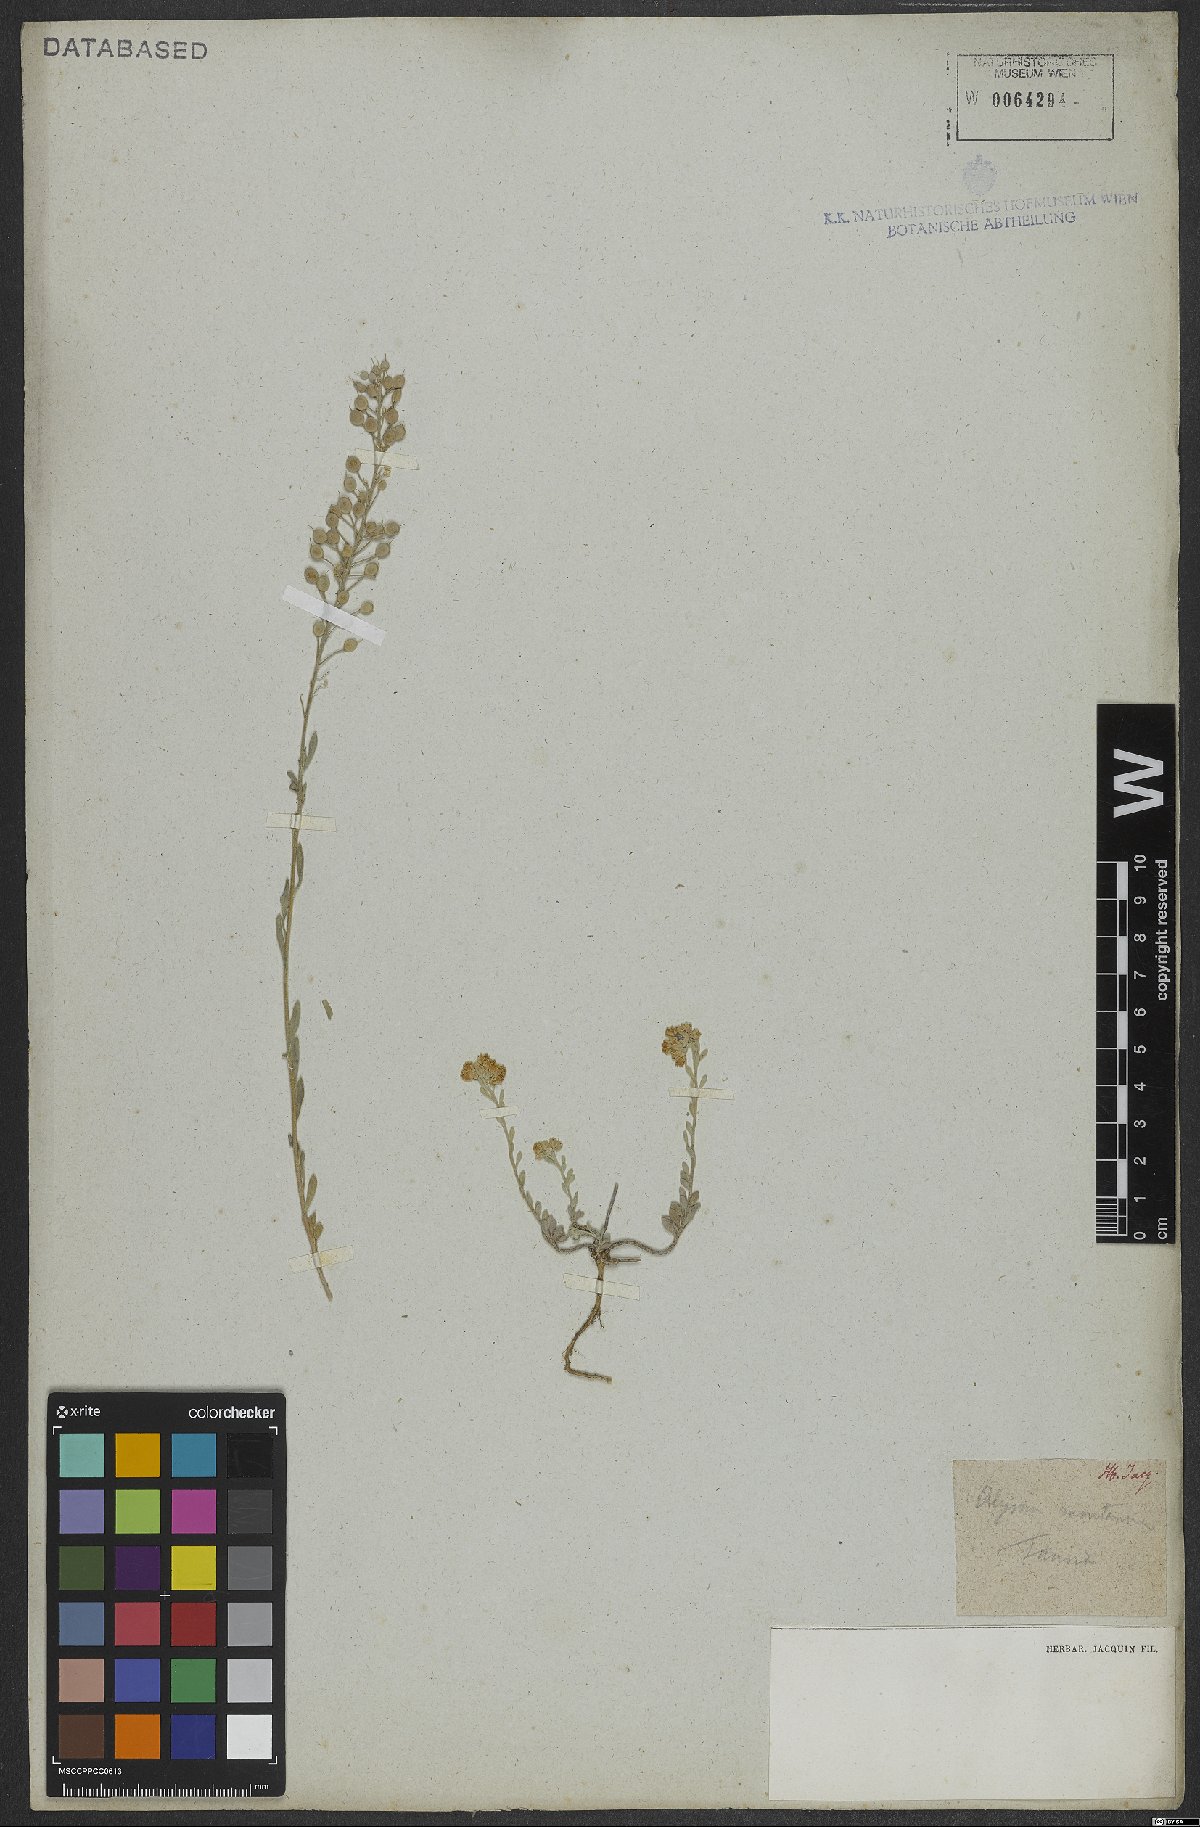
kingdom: Plantae
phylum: Tracheophyta
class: Magnoliopsida
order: Brassicales
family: Brassicaceae
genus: Alyssum
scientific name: Alyssum montanum
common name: Mountain alison
